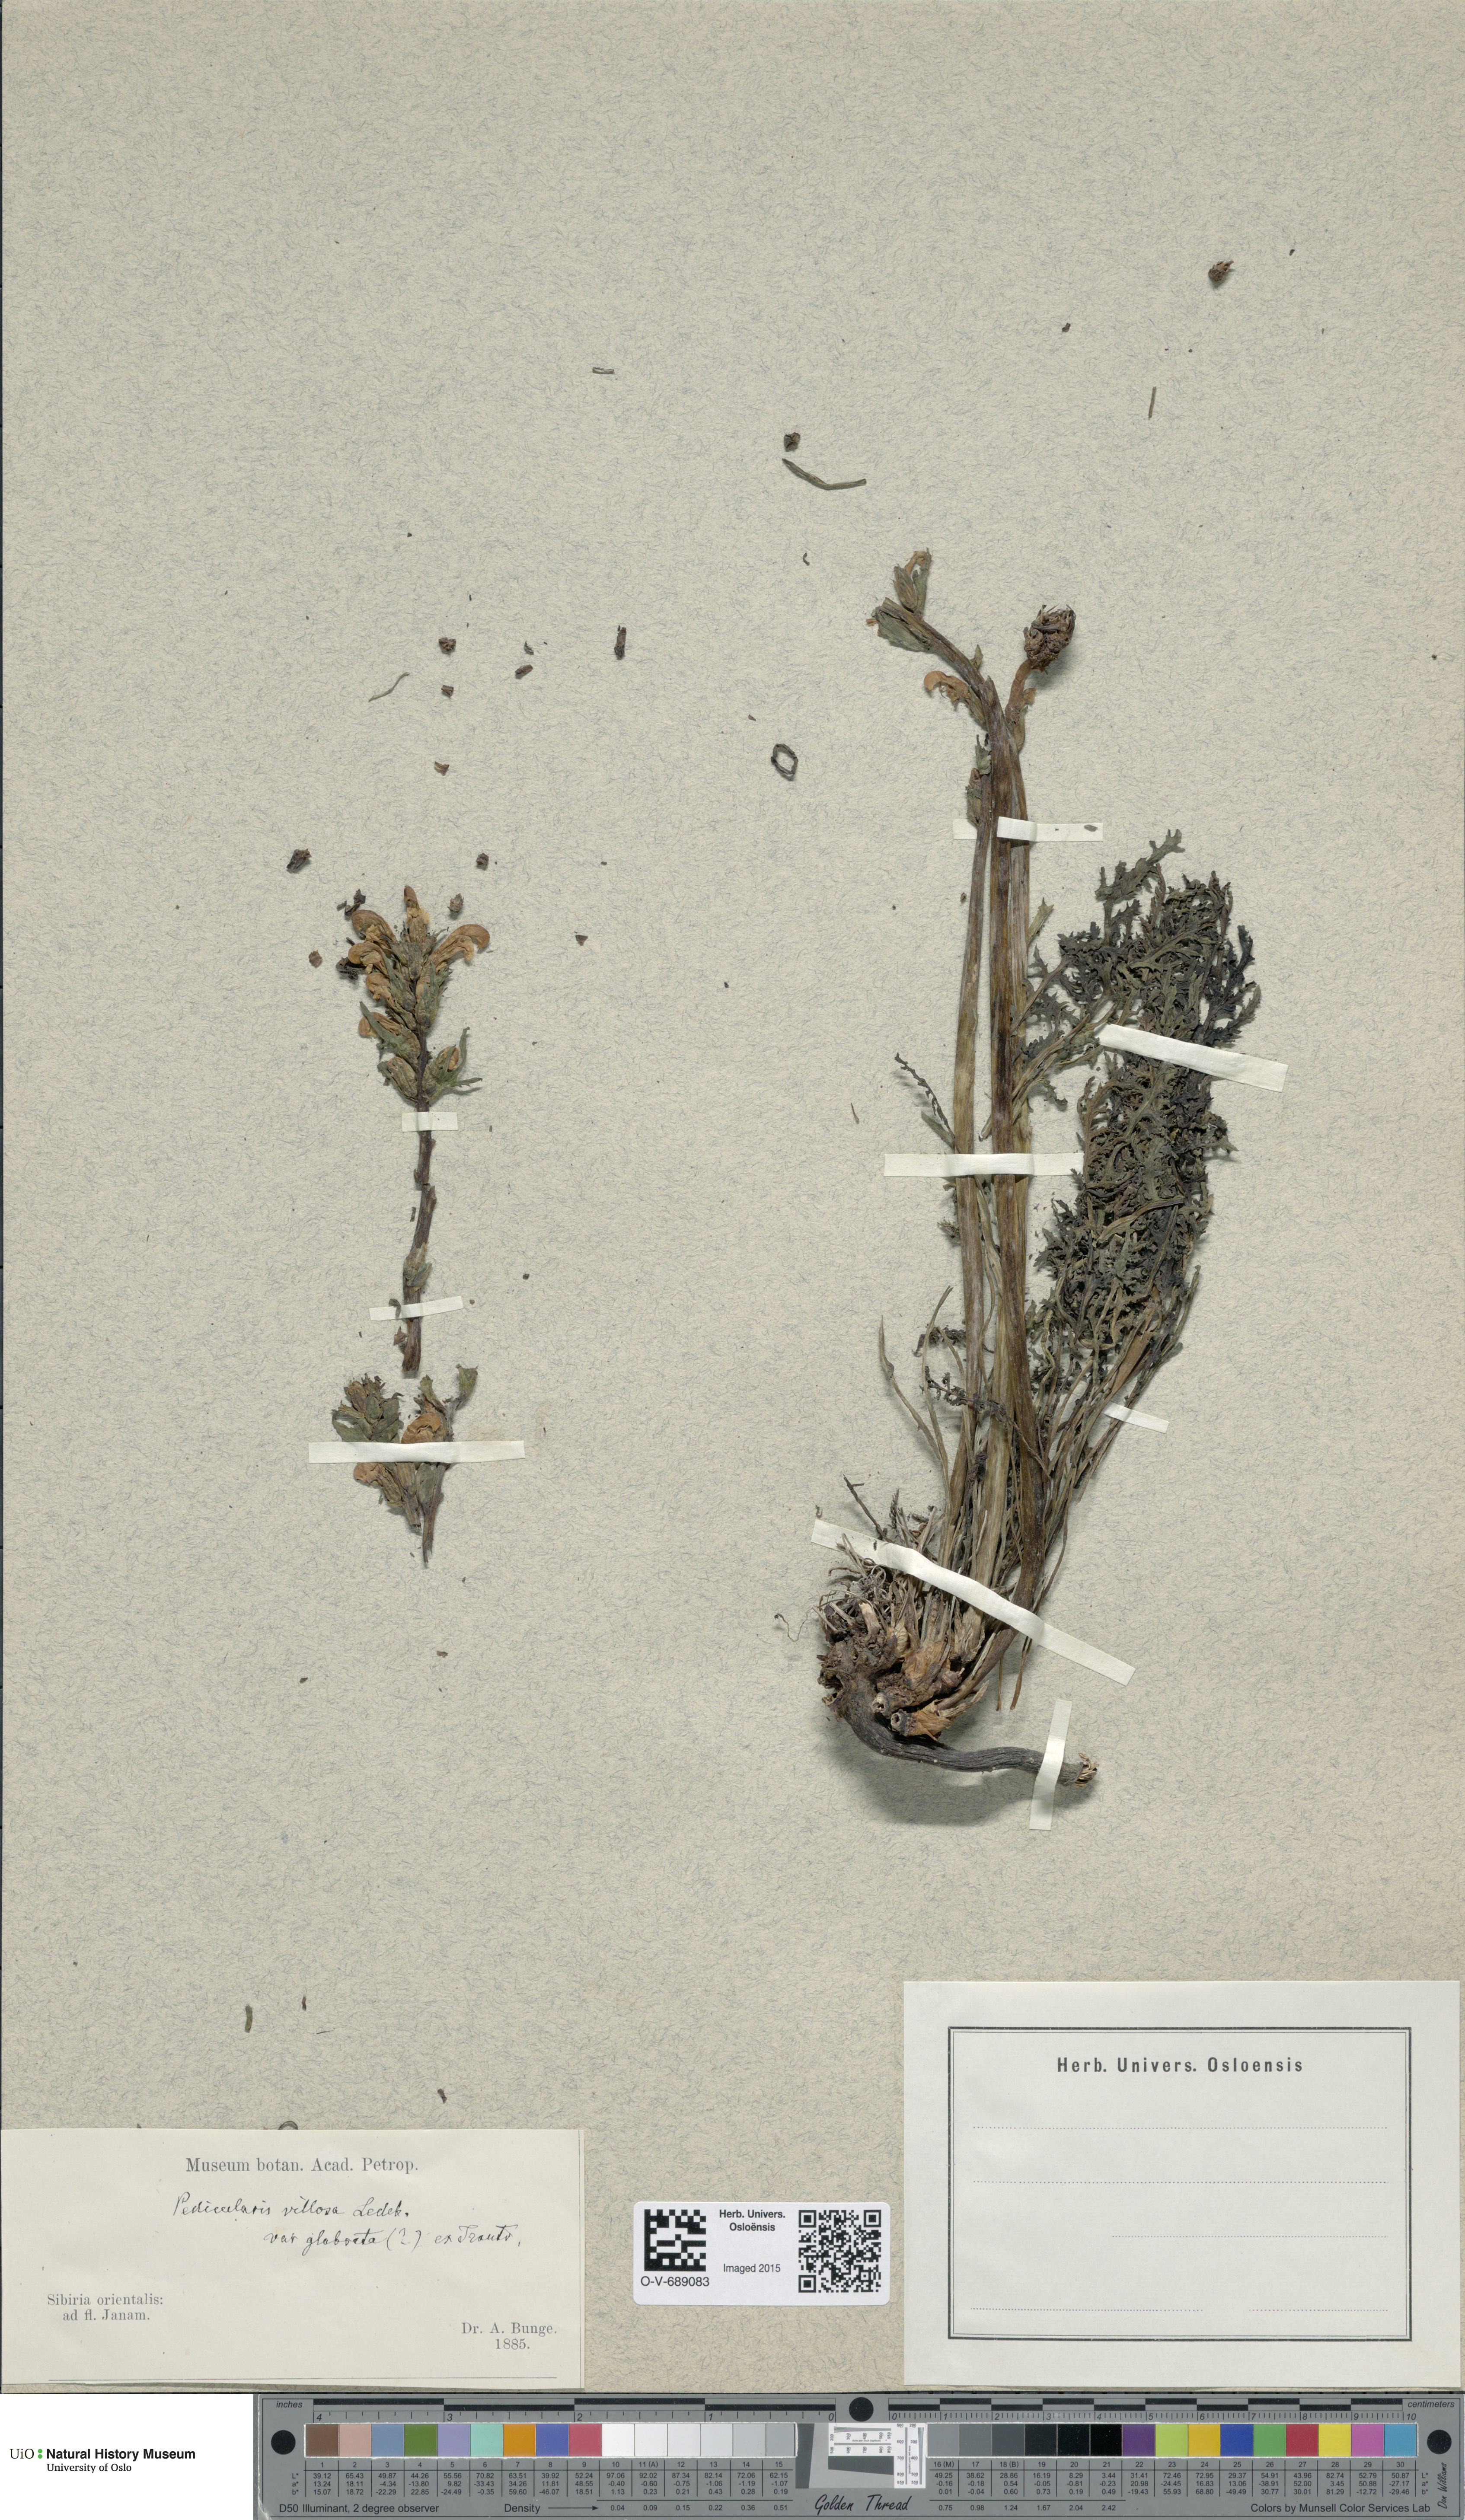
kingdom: Plantae
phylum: Tracheophyta
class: Magnoliopsida
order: Lamiales
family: Orobanchaceae
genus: Pedicularis
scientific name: Pedicularis villosa
